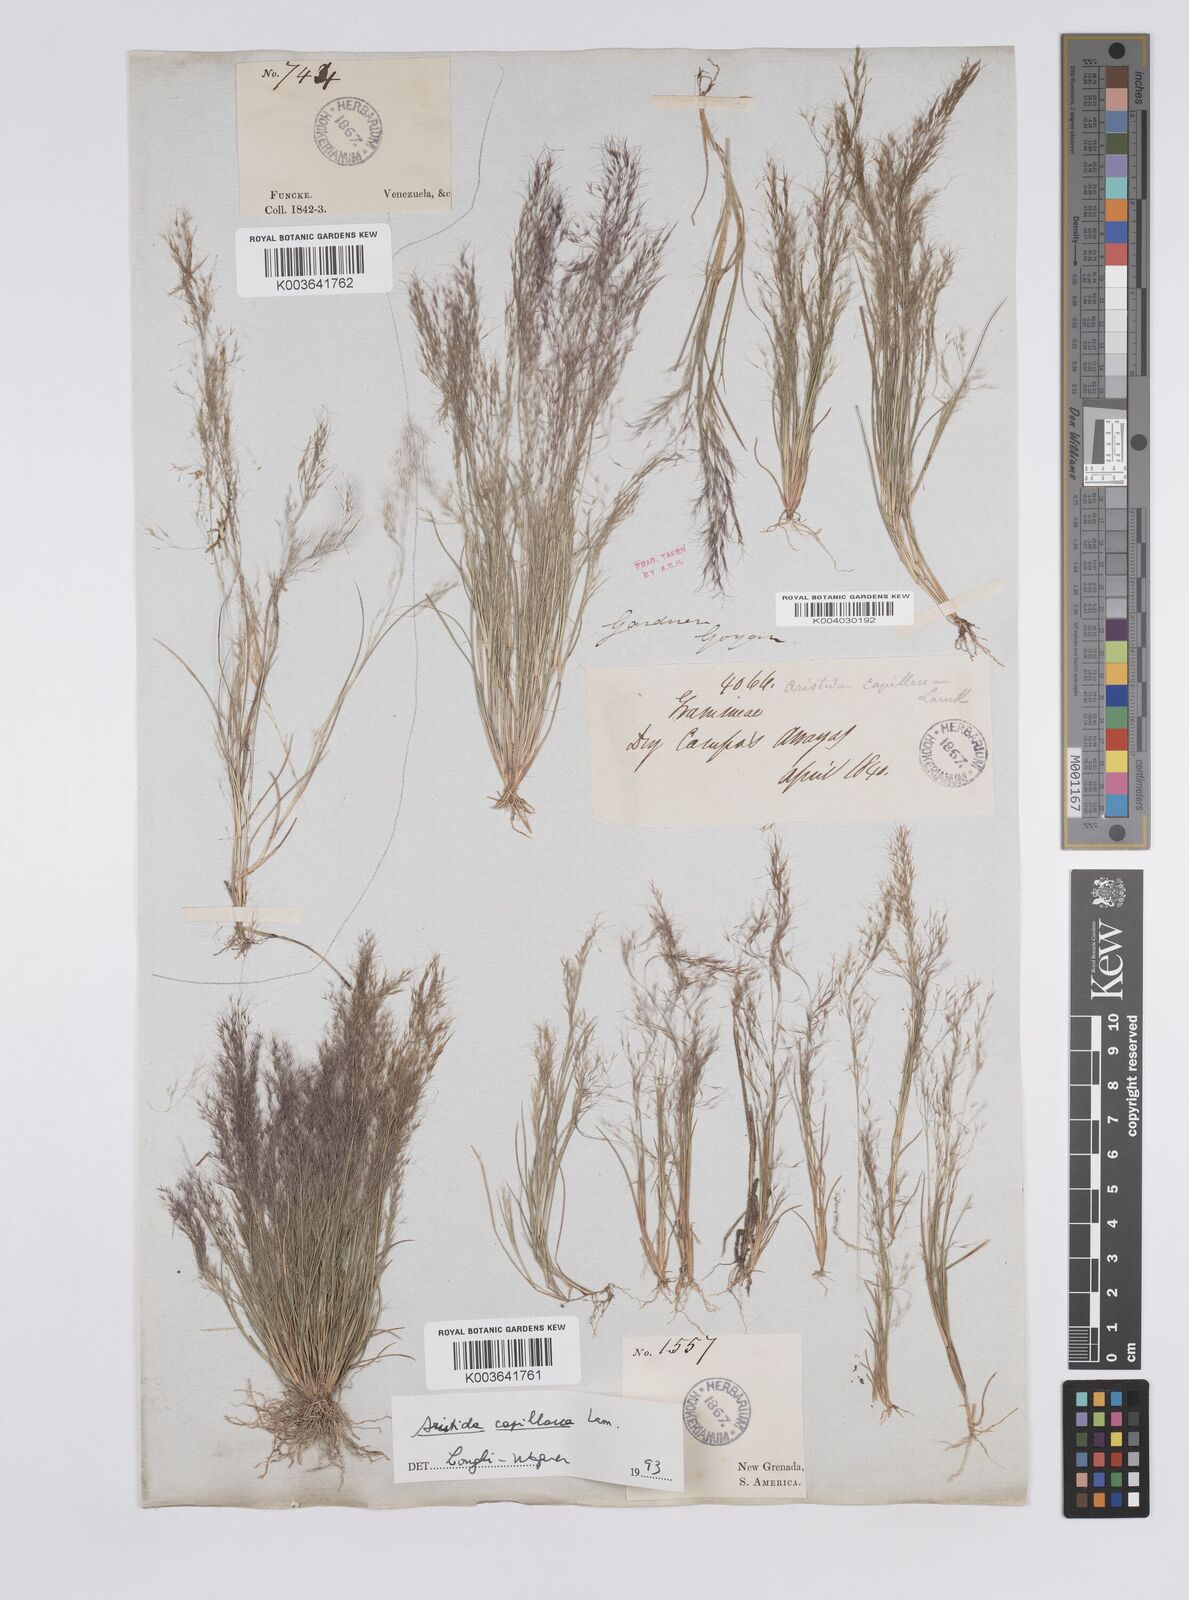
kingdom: Plantae
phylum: Tracheophyta
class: Liliopsida
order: Poales
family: Poaceae
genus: Aristida
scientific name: Aristida capillacea
